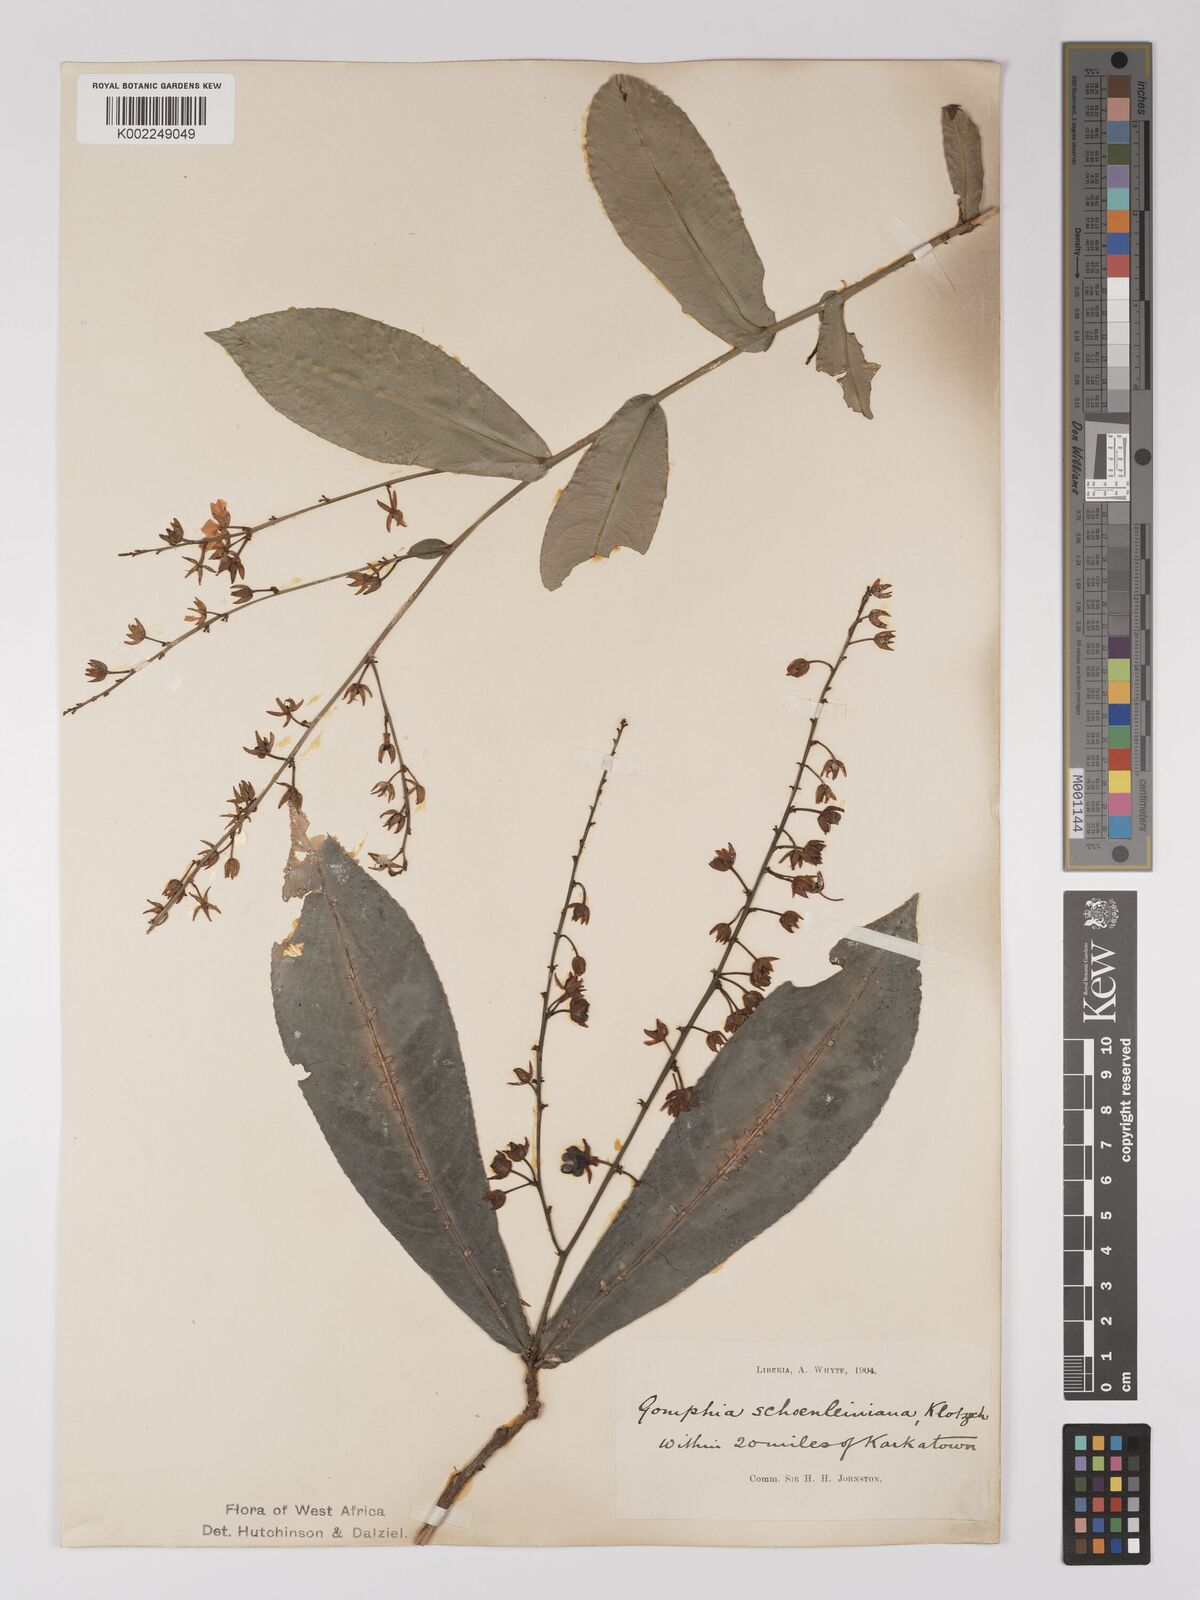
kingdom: Plantae
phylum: Tracheophyta
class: Magnoliopsida
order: Malpighiales
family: Ochnaceae
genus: Campylospermum
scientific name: Campylospermum schoenleinianum
